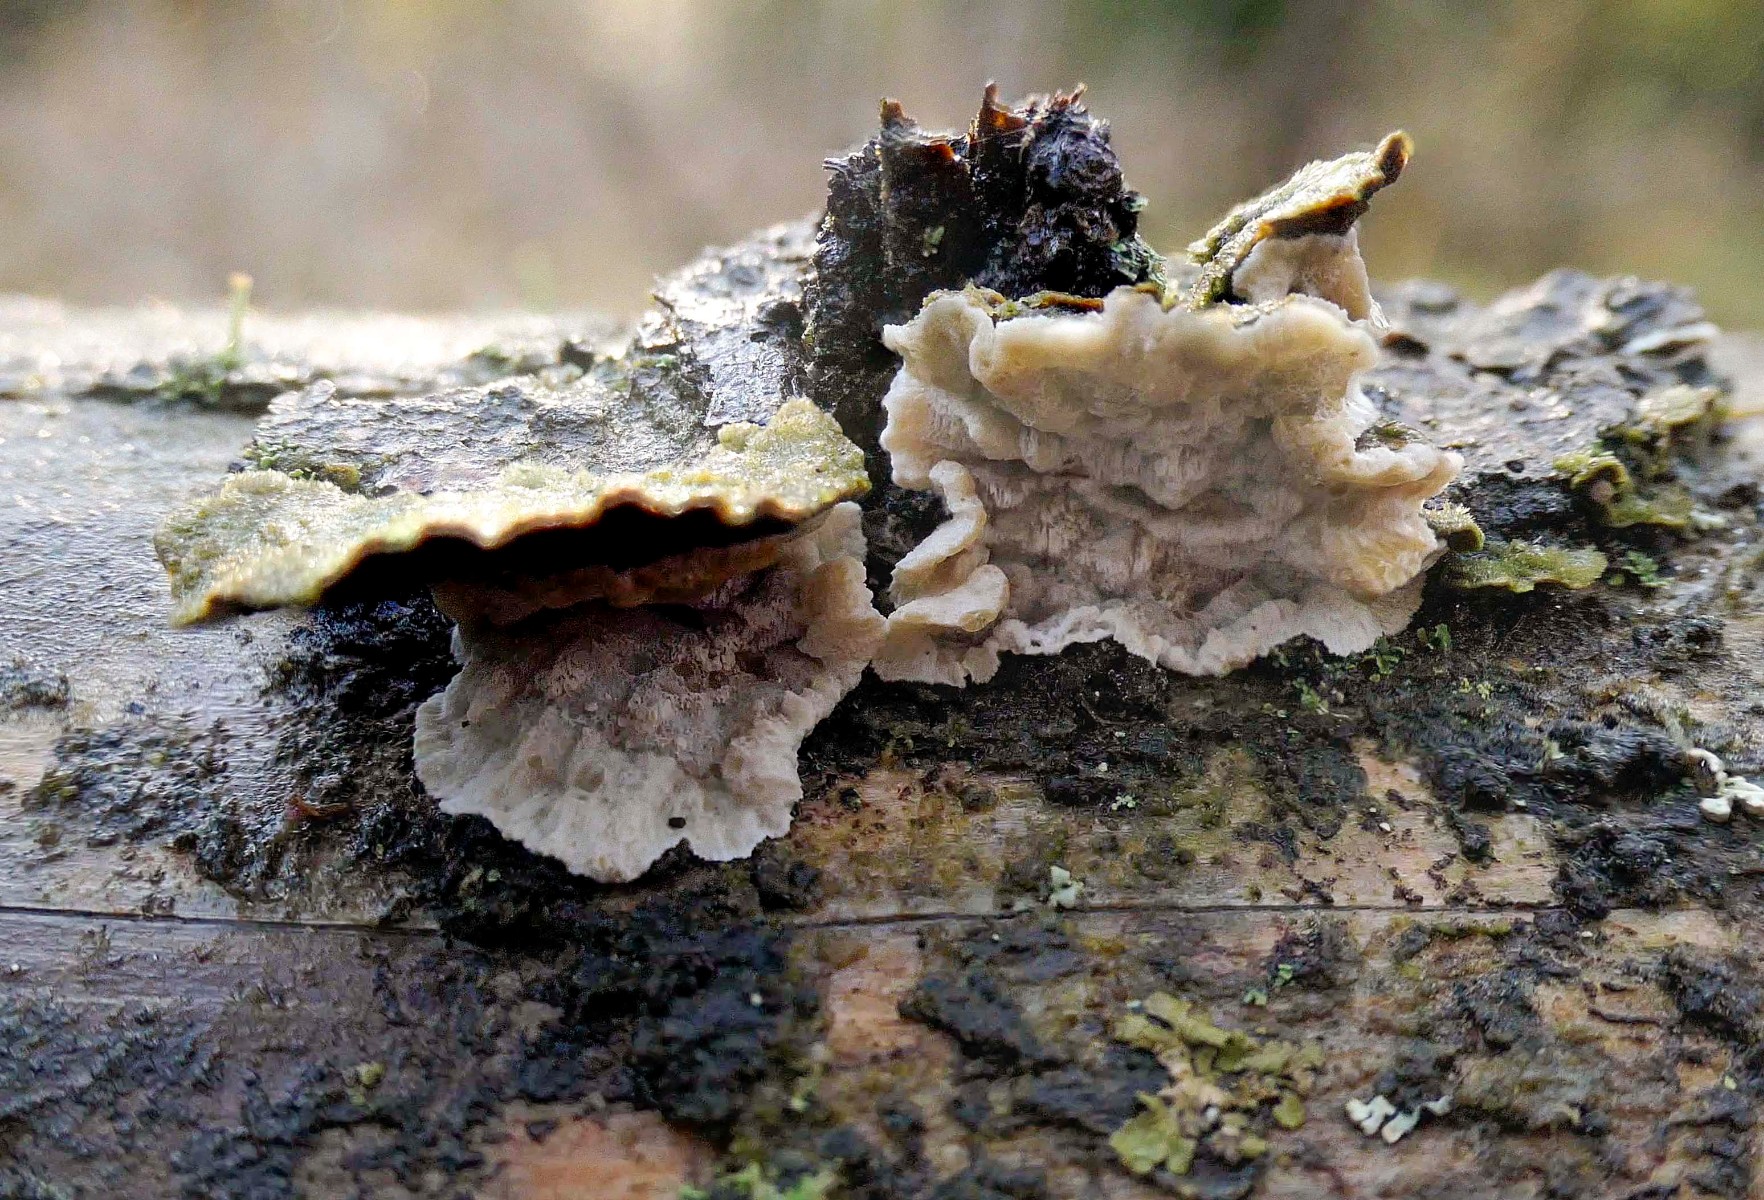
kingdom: Fungi
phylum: Basidiomycota
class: Agaricomycetes
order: Polyporales
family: Incrustoporiaceae
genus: Skeletocutis
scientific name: Skeletocutis carneogrisea
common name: rødgrå krystalporesvamp
